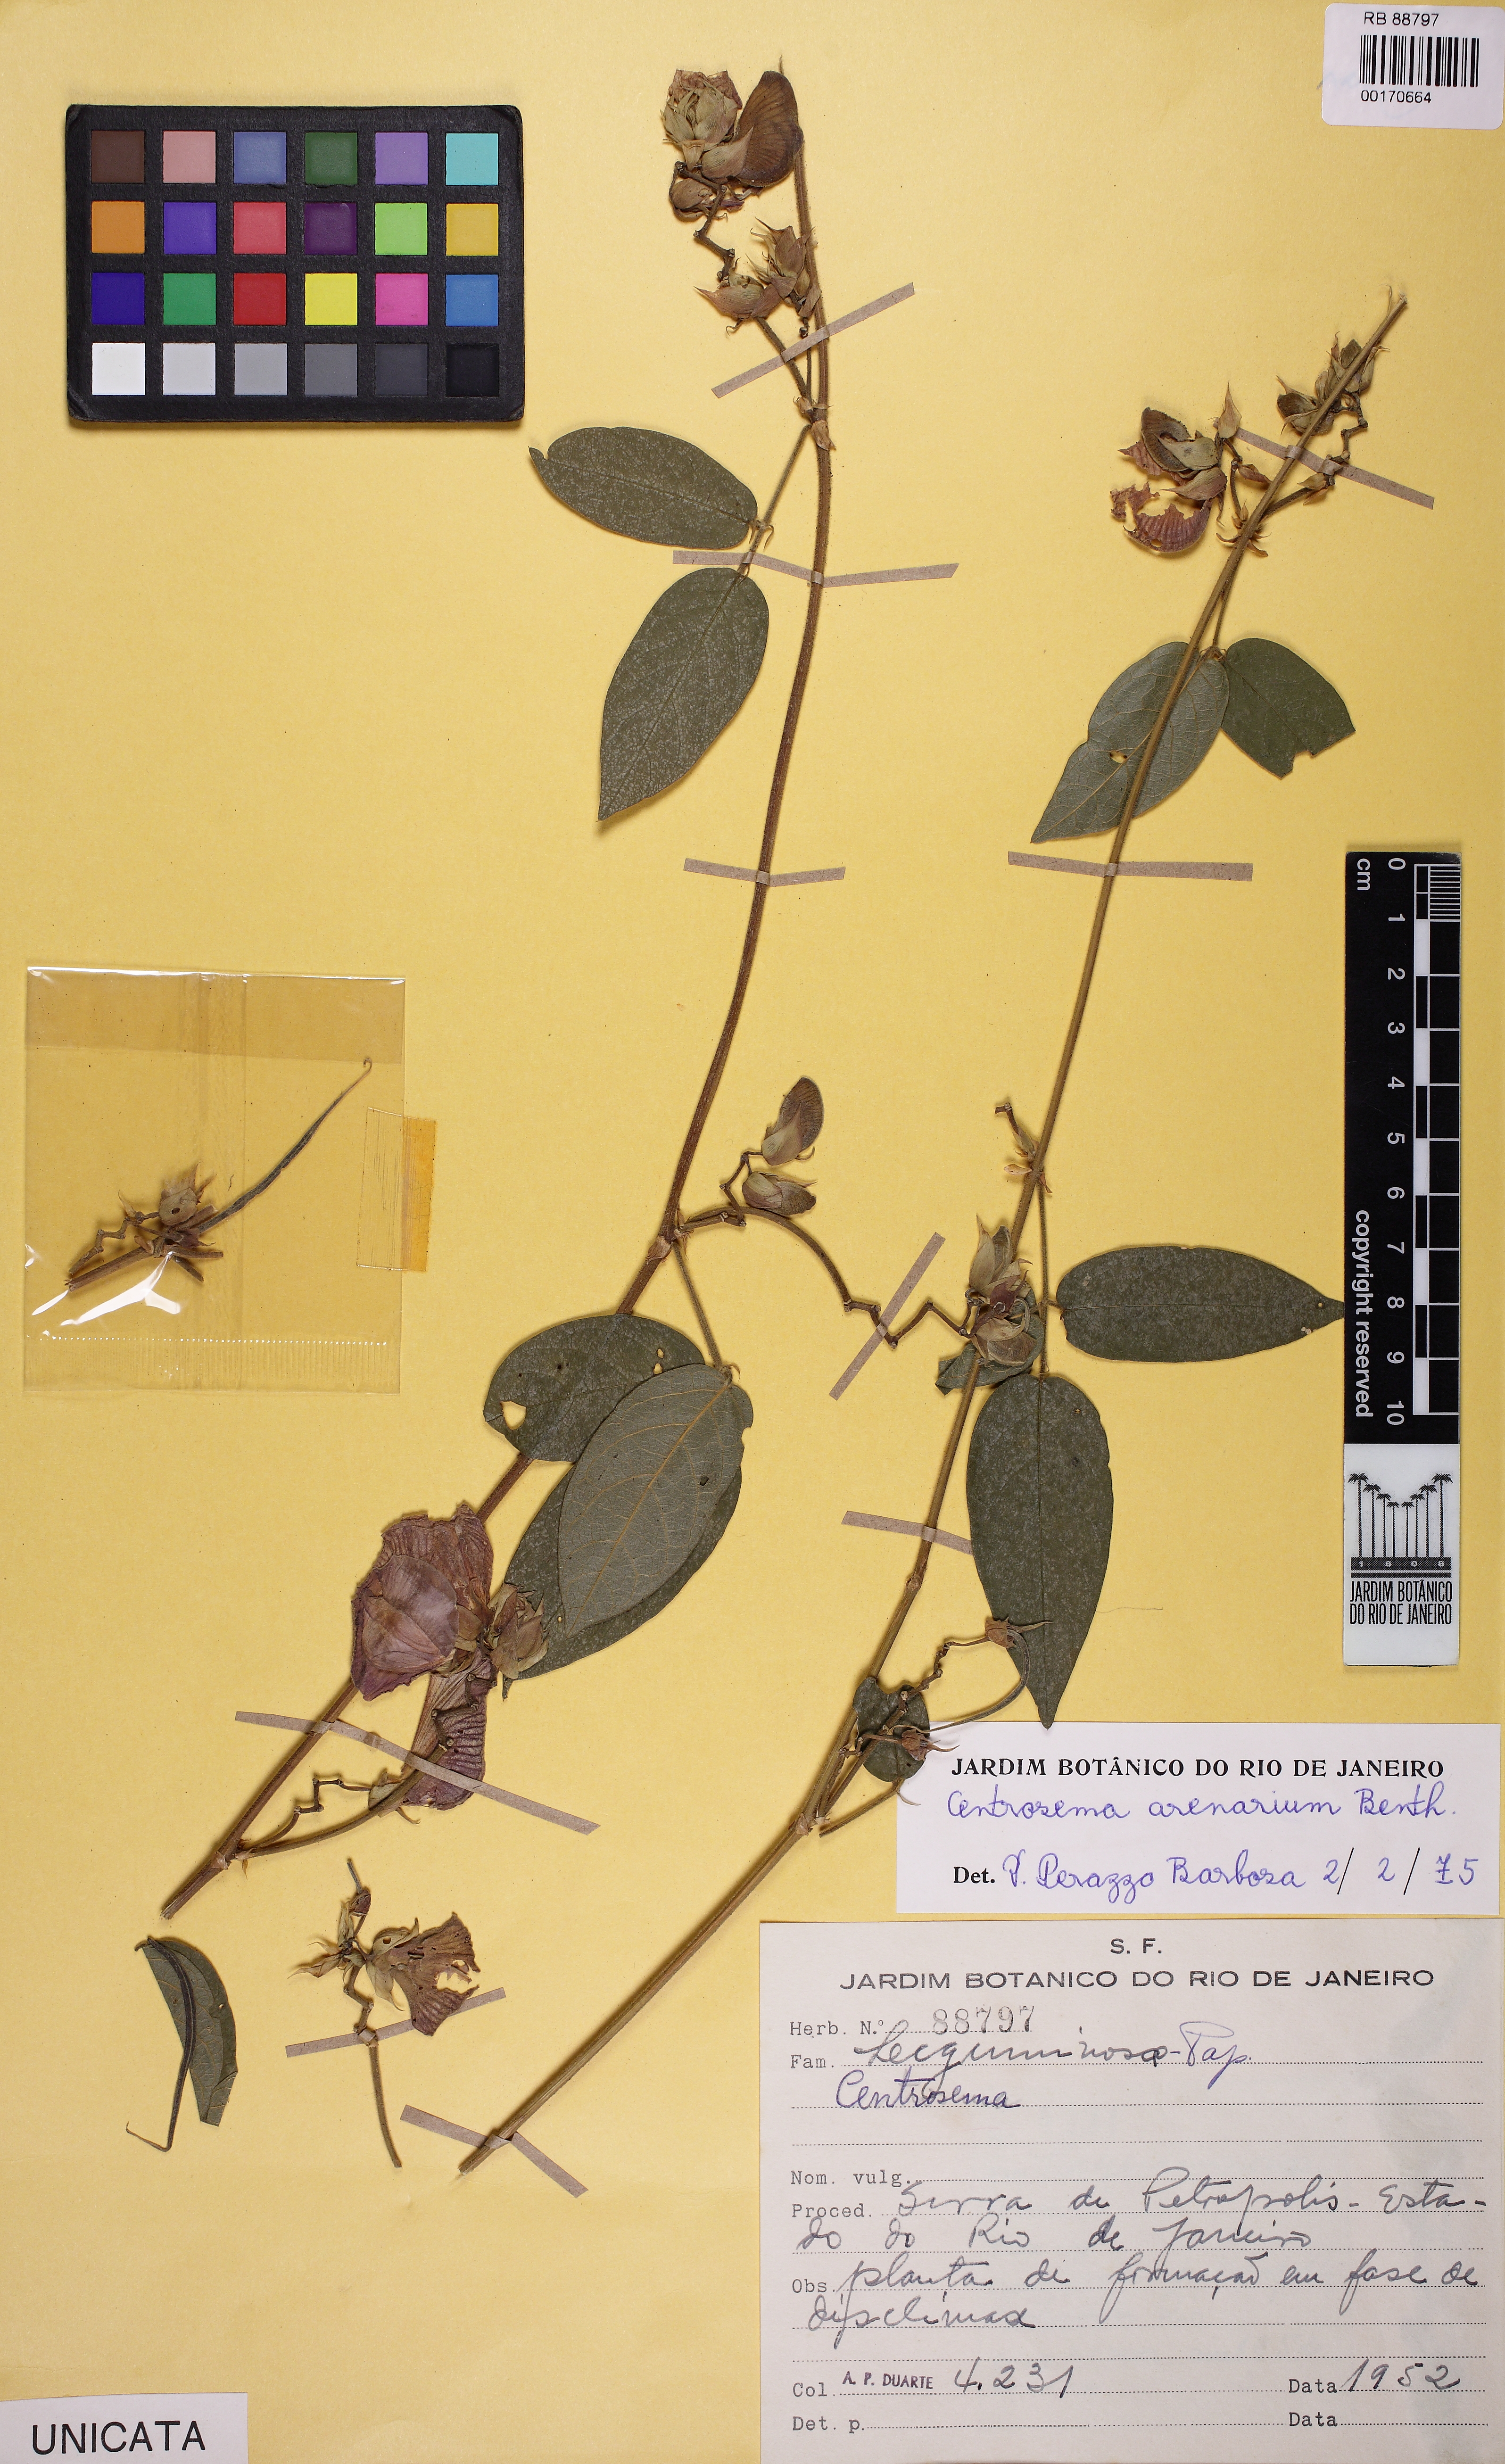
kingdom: Plantae
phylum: Tracheophyta
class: Magnoliopsida
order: Fabales
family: Fabaceae
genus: Centrosema
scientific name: Centrosema arenarium
